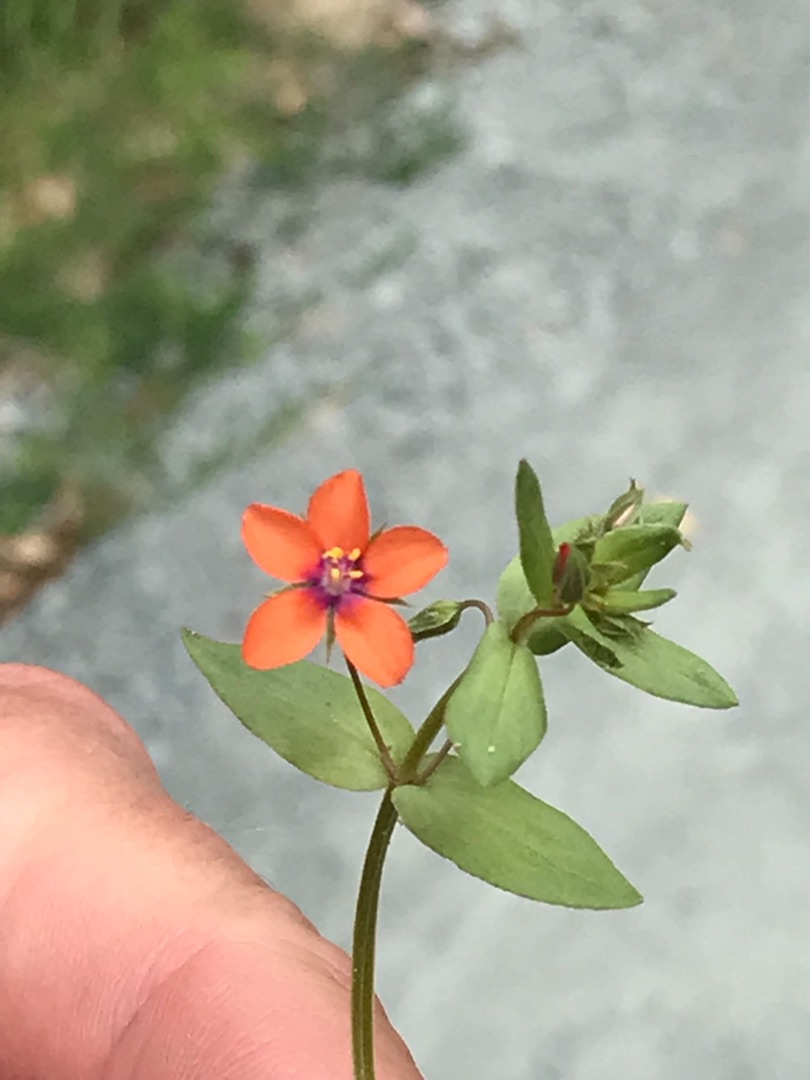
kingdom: Plantae
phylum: Tracheophyta
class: Magnoliopsida
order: Ericales
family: Primulaceae
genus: Lysimachia
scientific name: Lysimachia arvensis
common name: Rød arve
